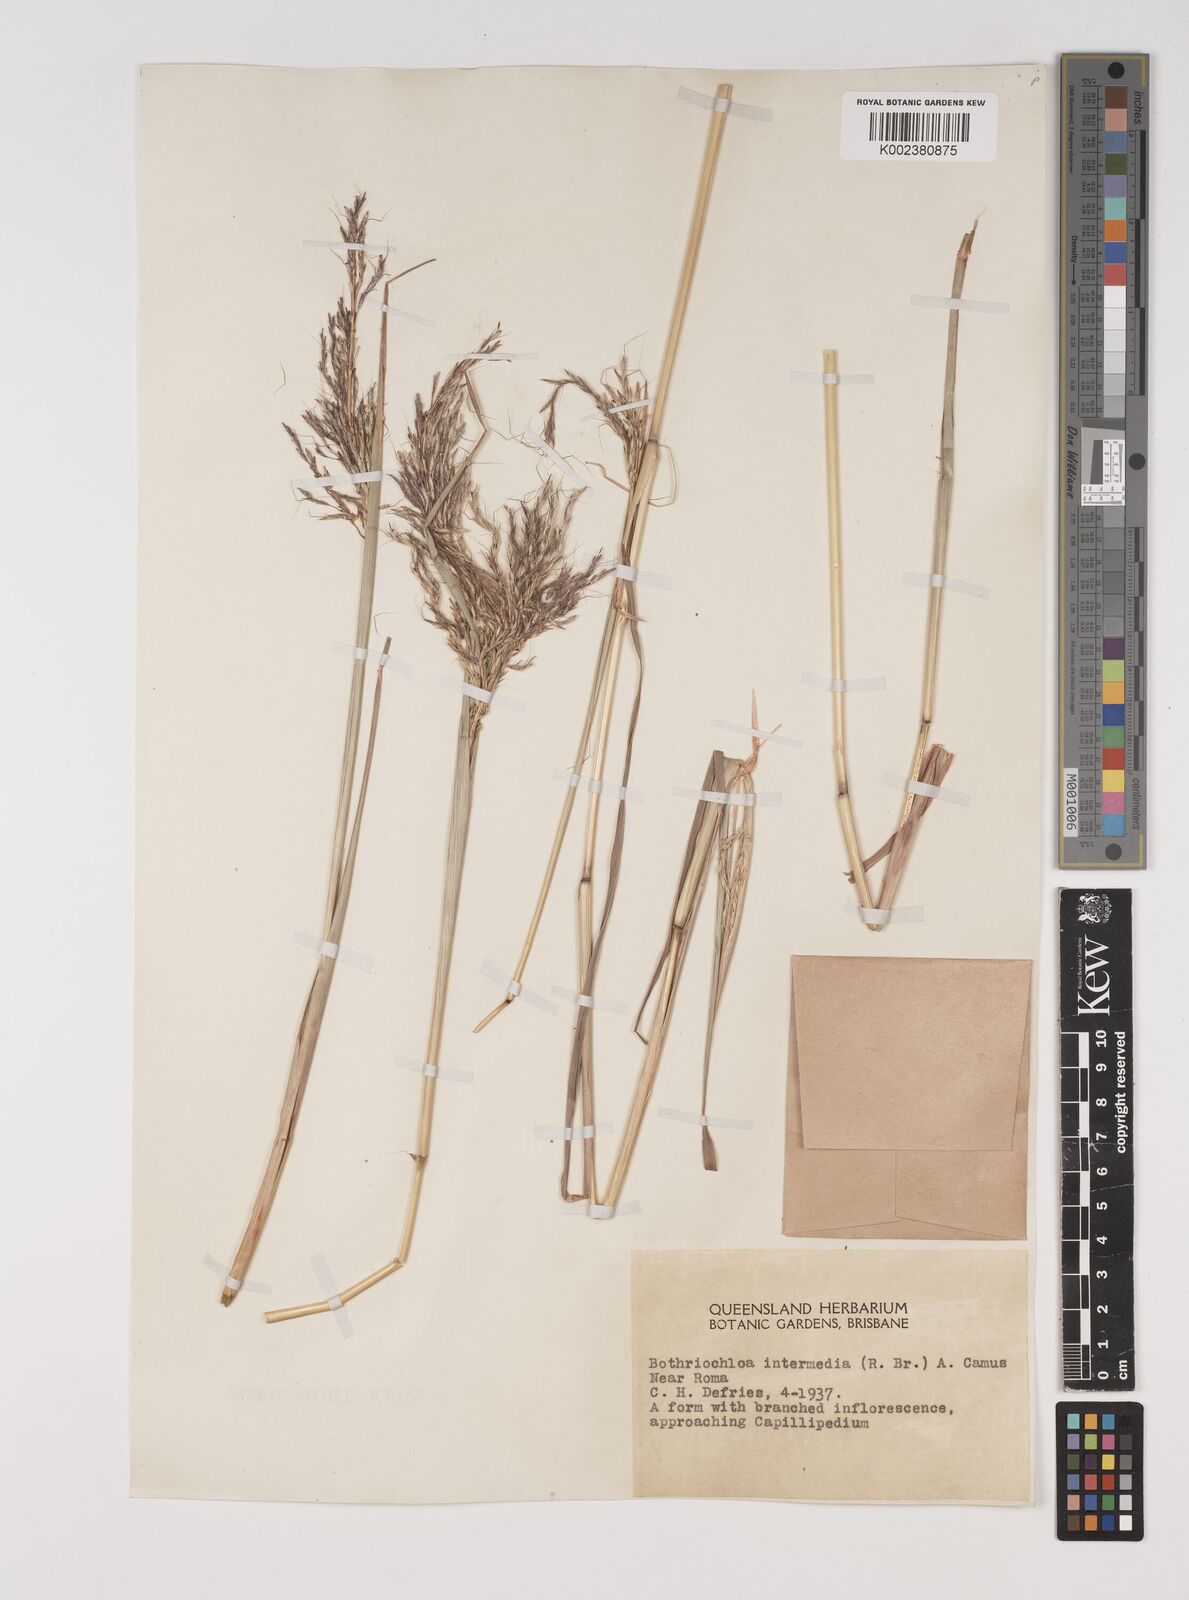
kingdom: Plantae
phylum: Tracheophyta
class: Liliopsida
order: Poales
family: Poaceae
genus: Bothriochloa
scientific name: Bothriochloa bladhii
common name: Caucasian bluestem
